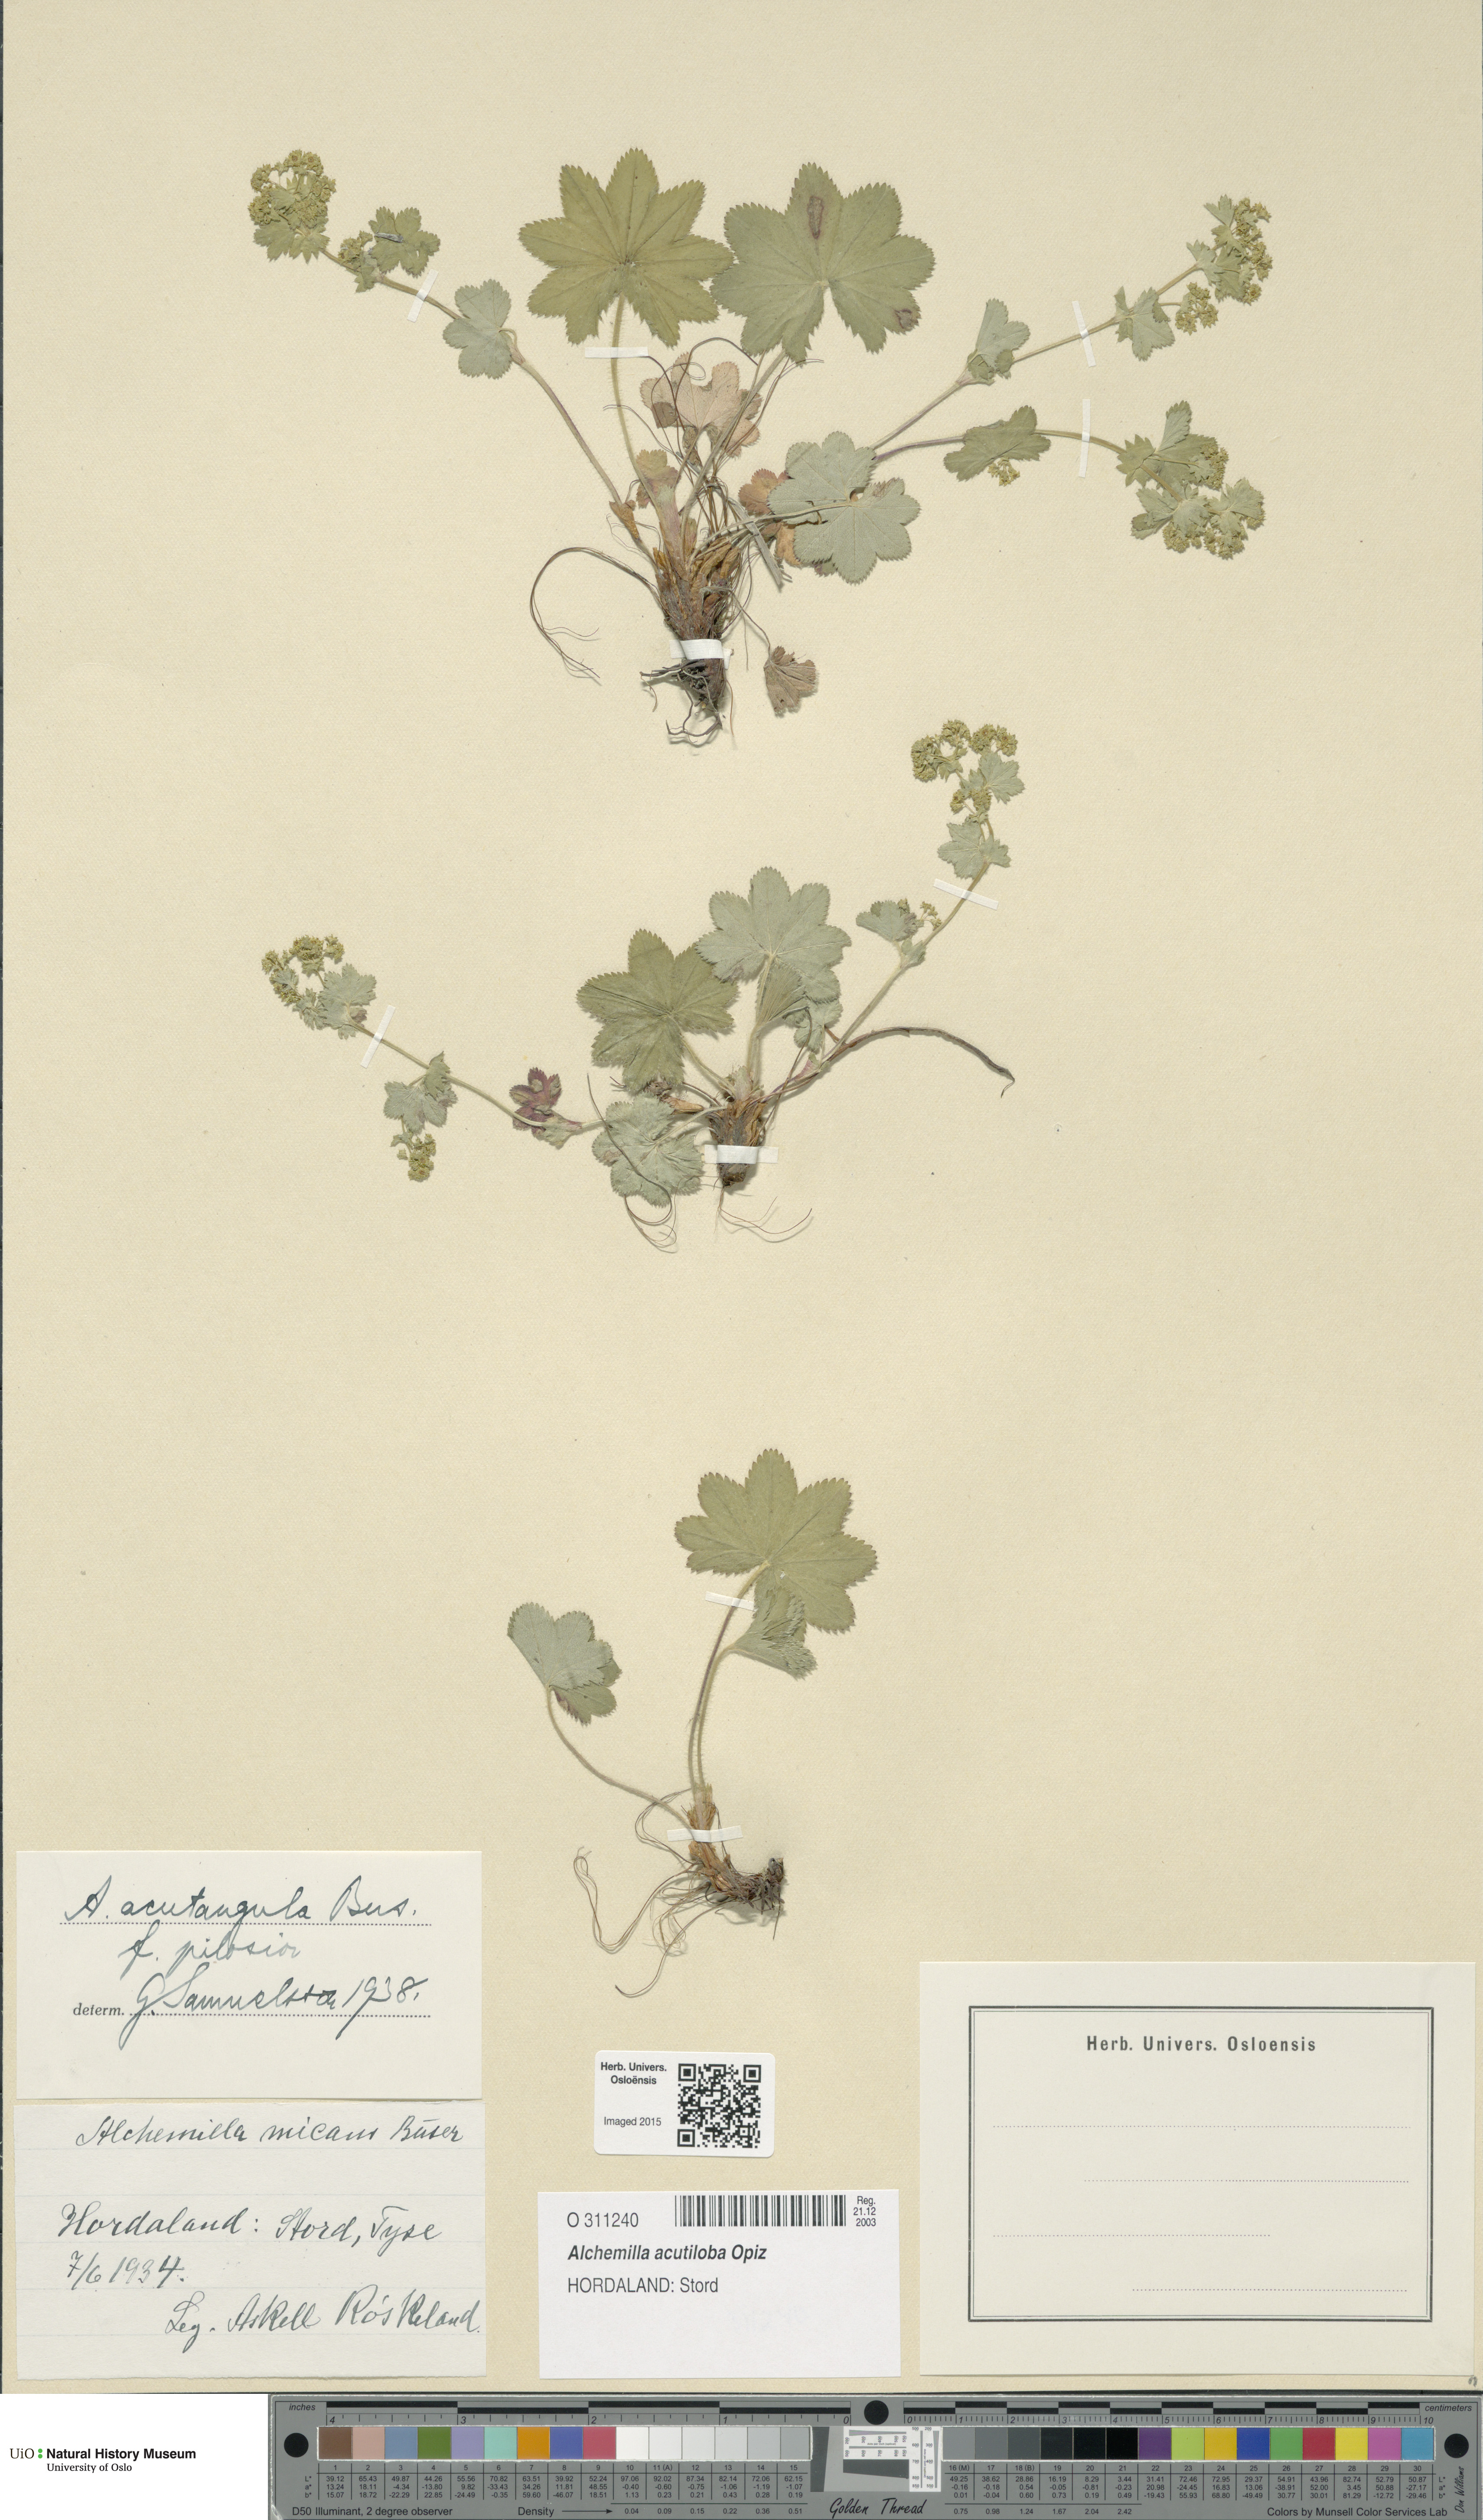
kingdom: Plantae
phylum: Tracheophyta
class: Magnoliopsida
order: Rosales
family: Rosaceae
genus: Alchemilla
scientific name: Alchemilla vulgaris
